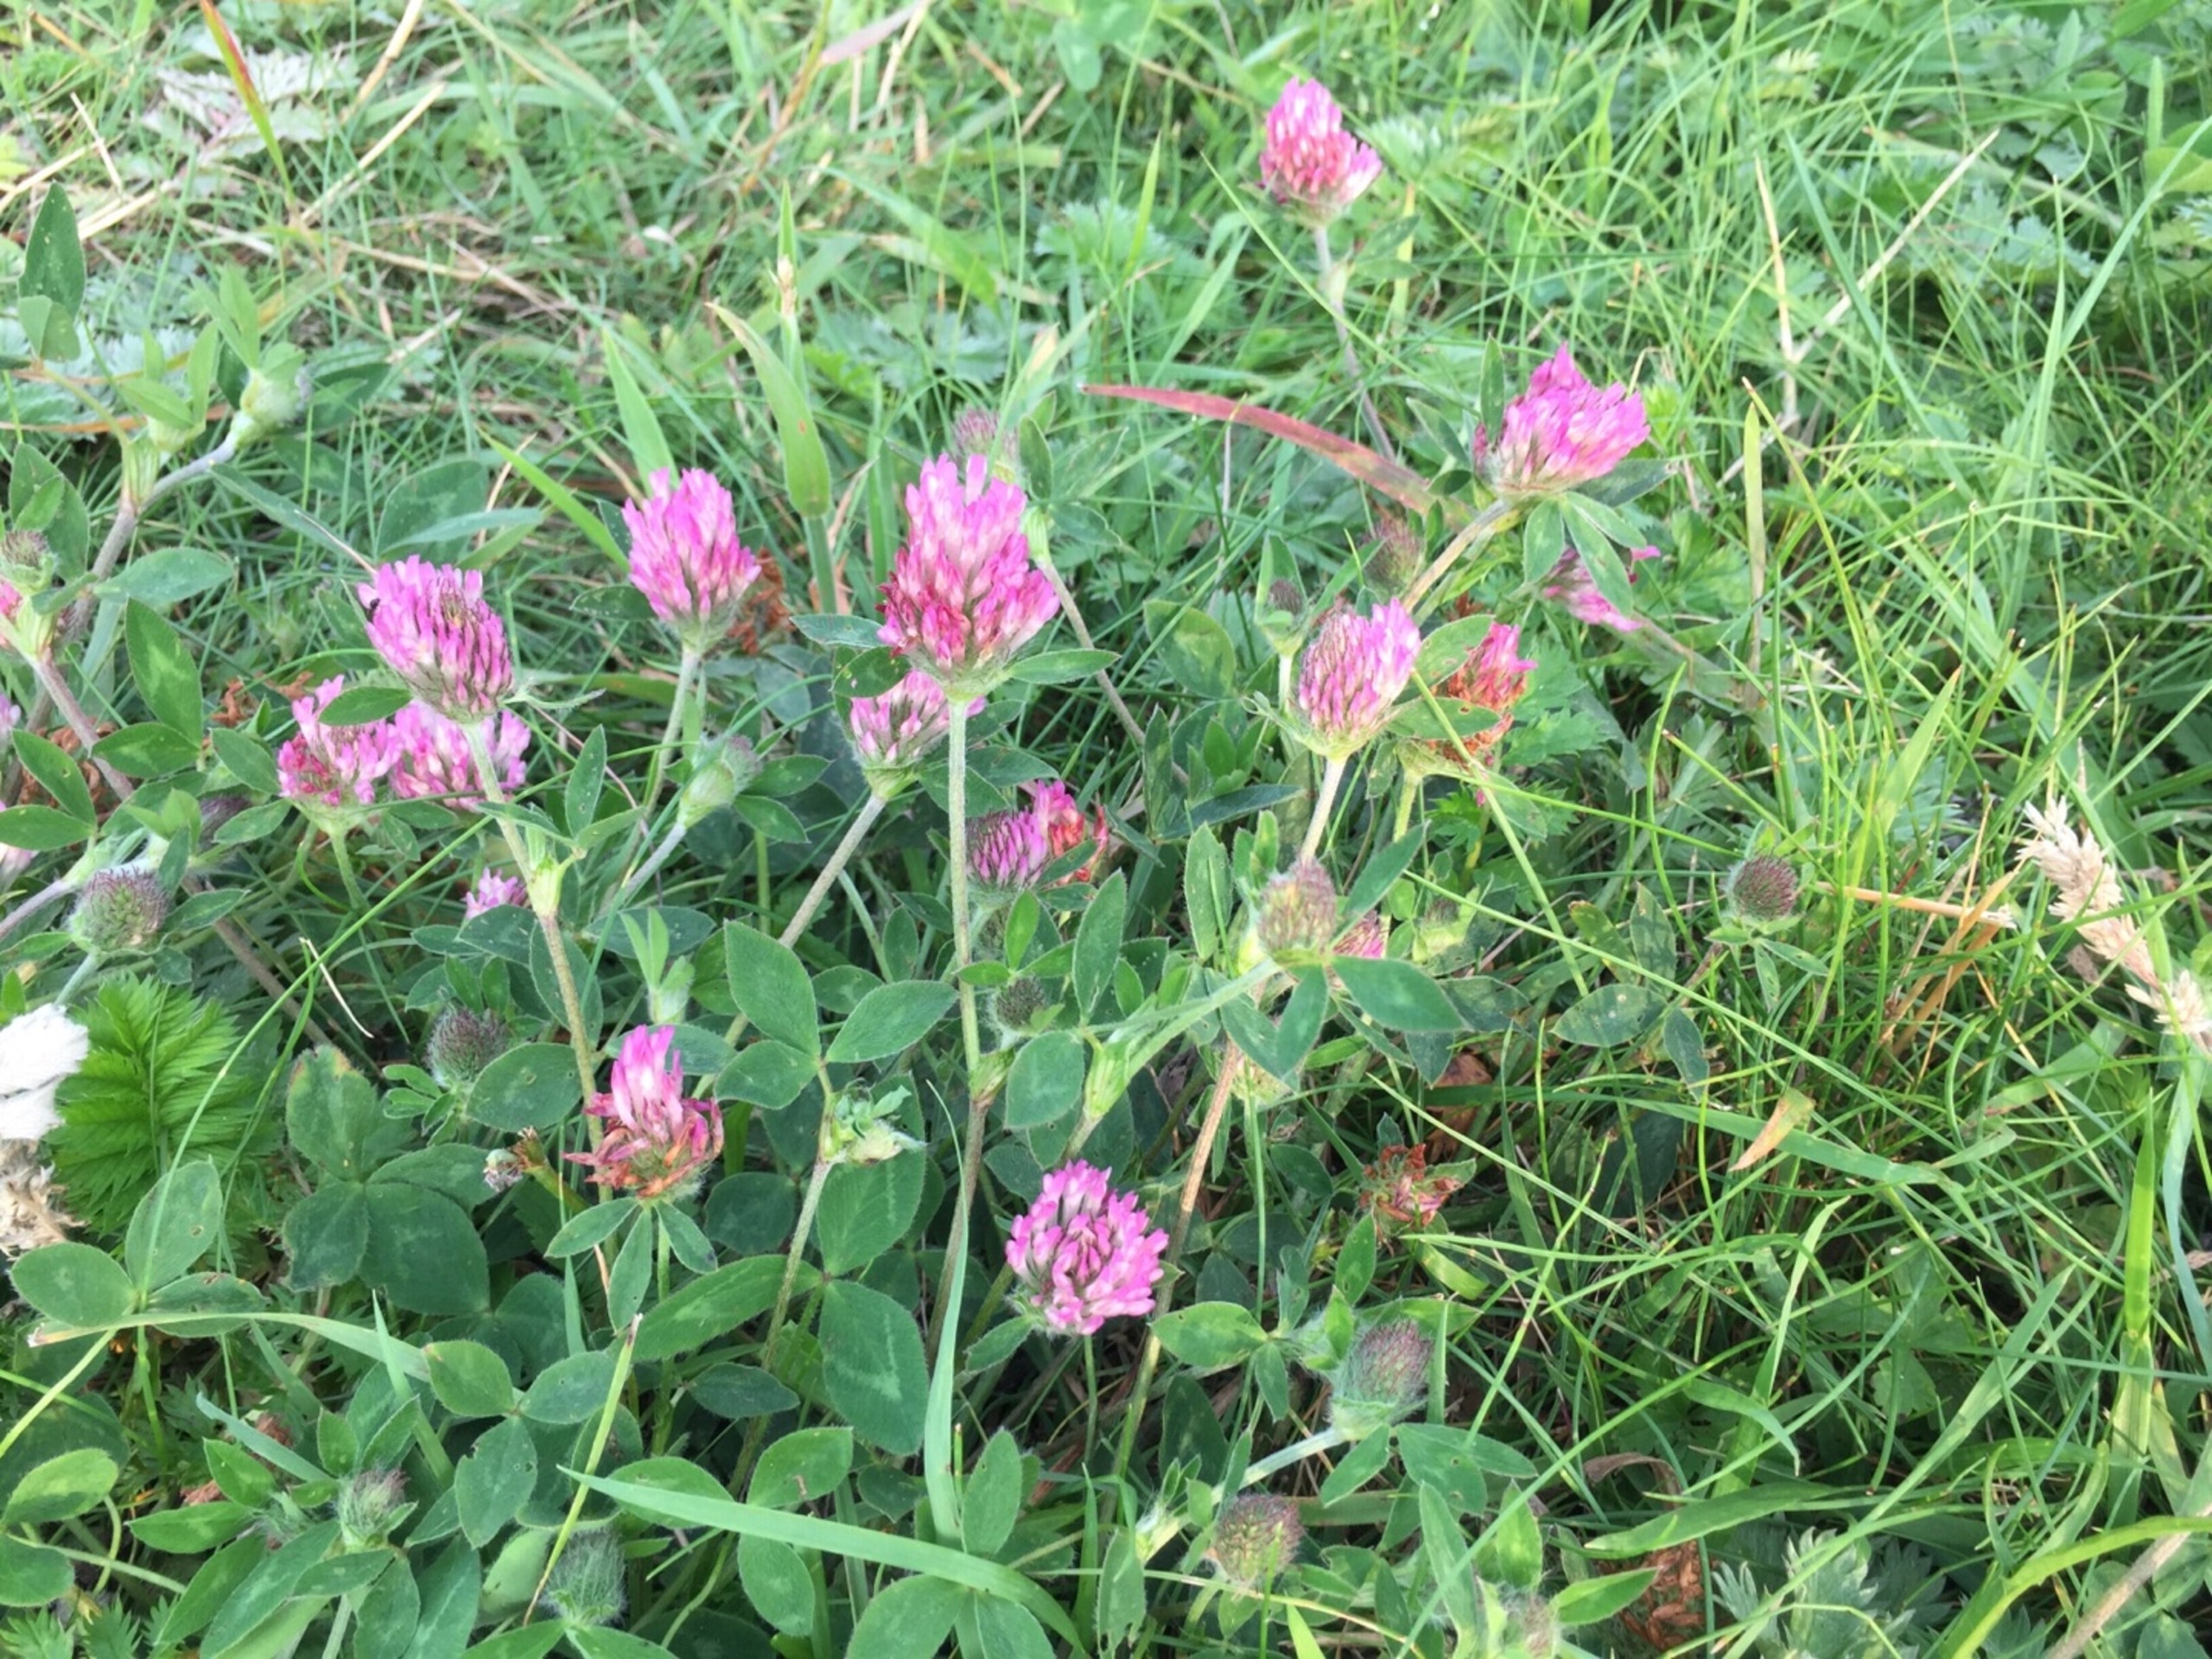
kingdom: Plantae
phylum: Tracheophyta
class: Magnoliopsida
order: Fabales
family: Fabaceae
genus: Trifolium
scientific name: Trifolium pratense
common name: Rød-kløver
